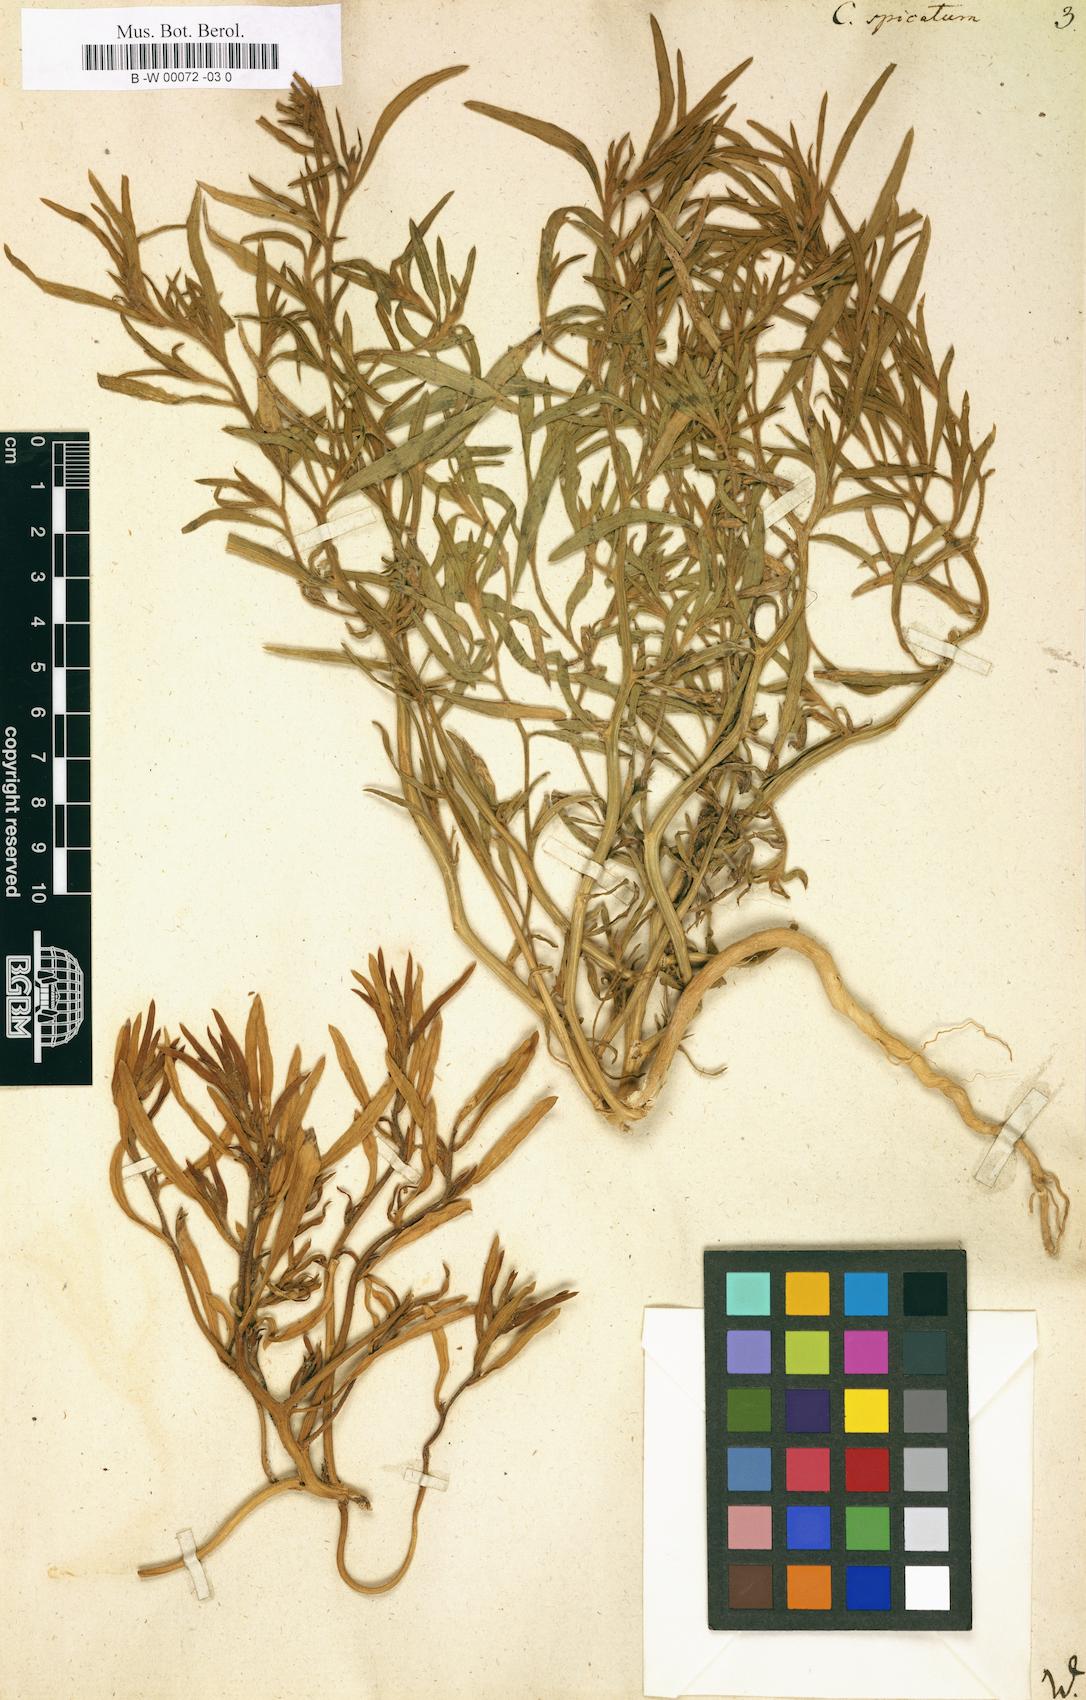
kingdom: Plantae
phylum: Tracheophyta
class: Magnoliopsida
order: Caryophyllales
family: Amaranthaceae
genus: Corispermum
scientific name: Corispermum spicatum
